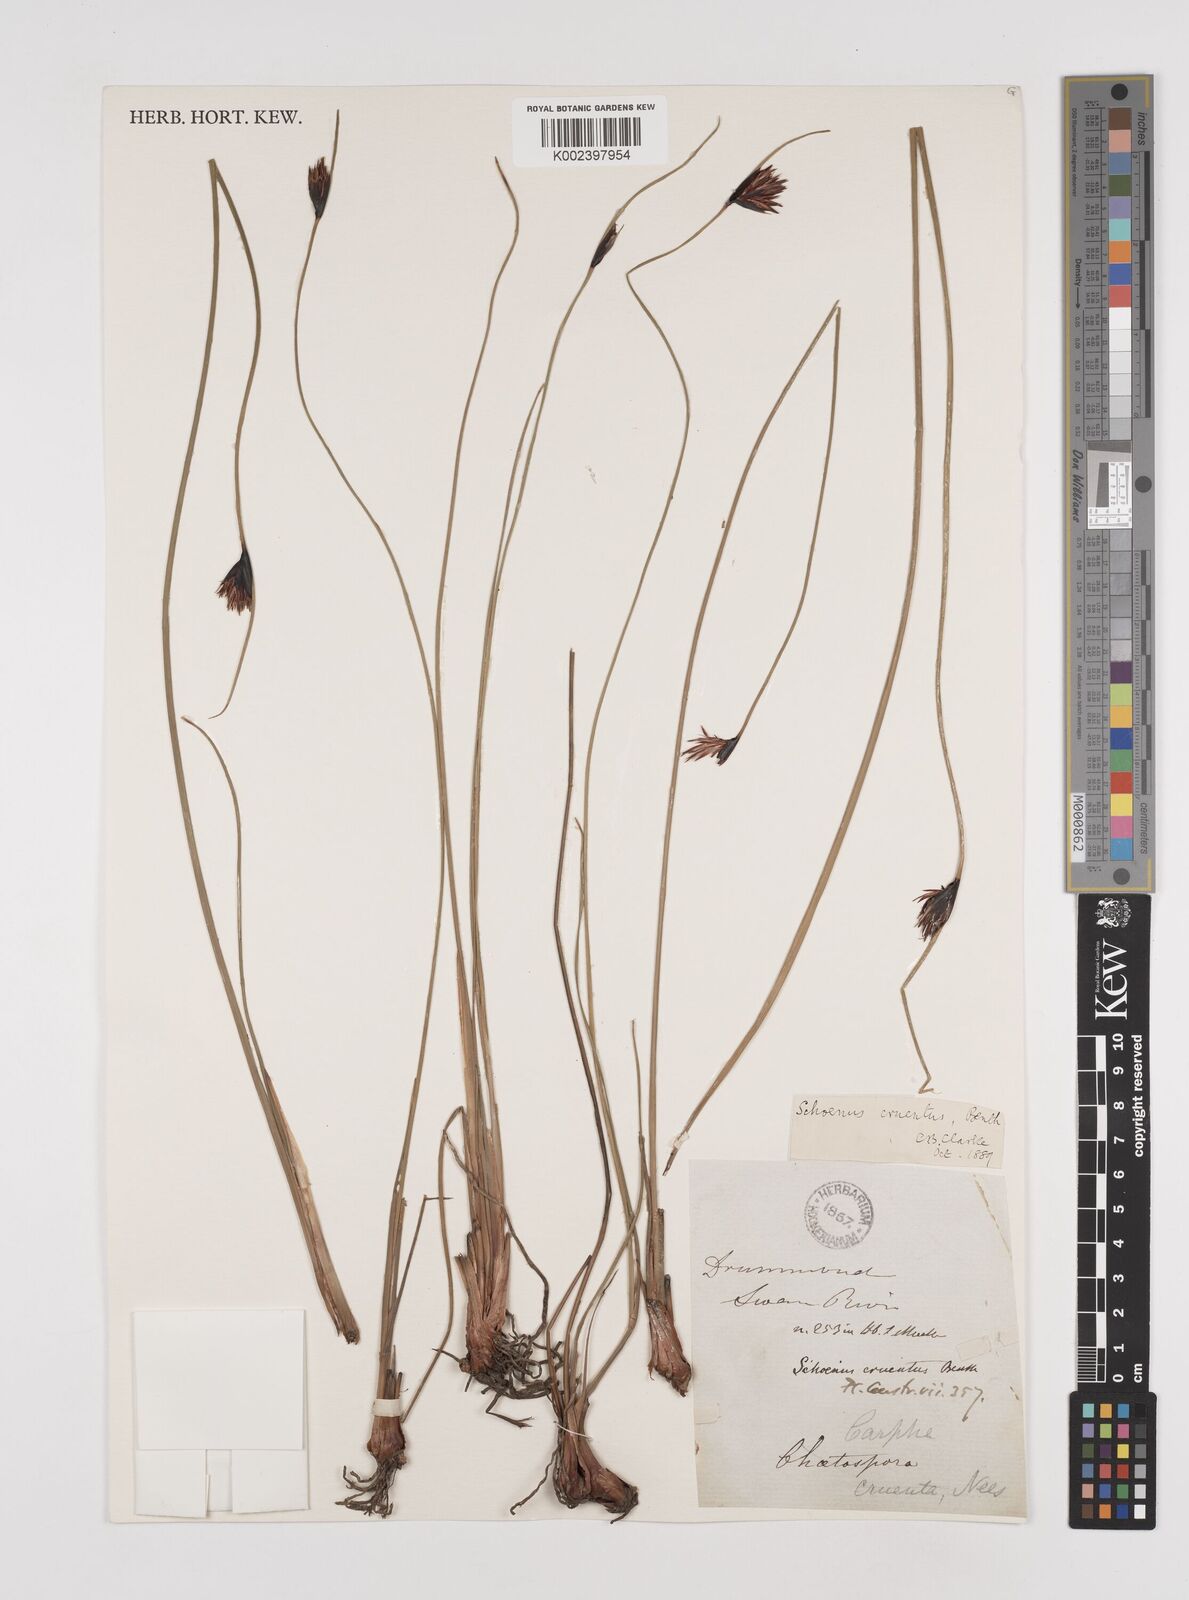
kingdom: Plantae
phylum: Tracheophyta
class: Liliopsida
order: Poales
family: Cyperaceae
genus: Schoenus
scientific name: Schoenus cruentus
